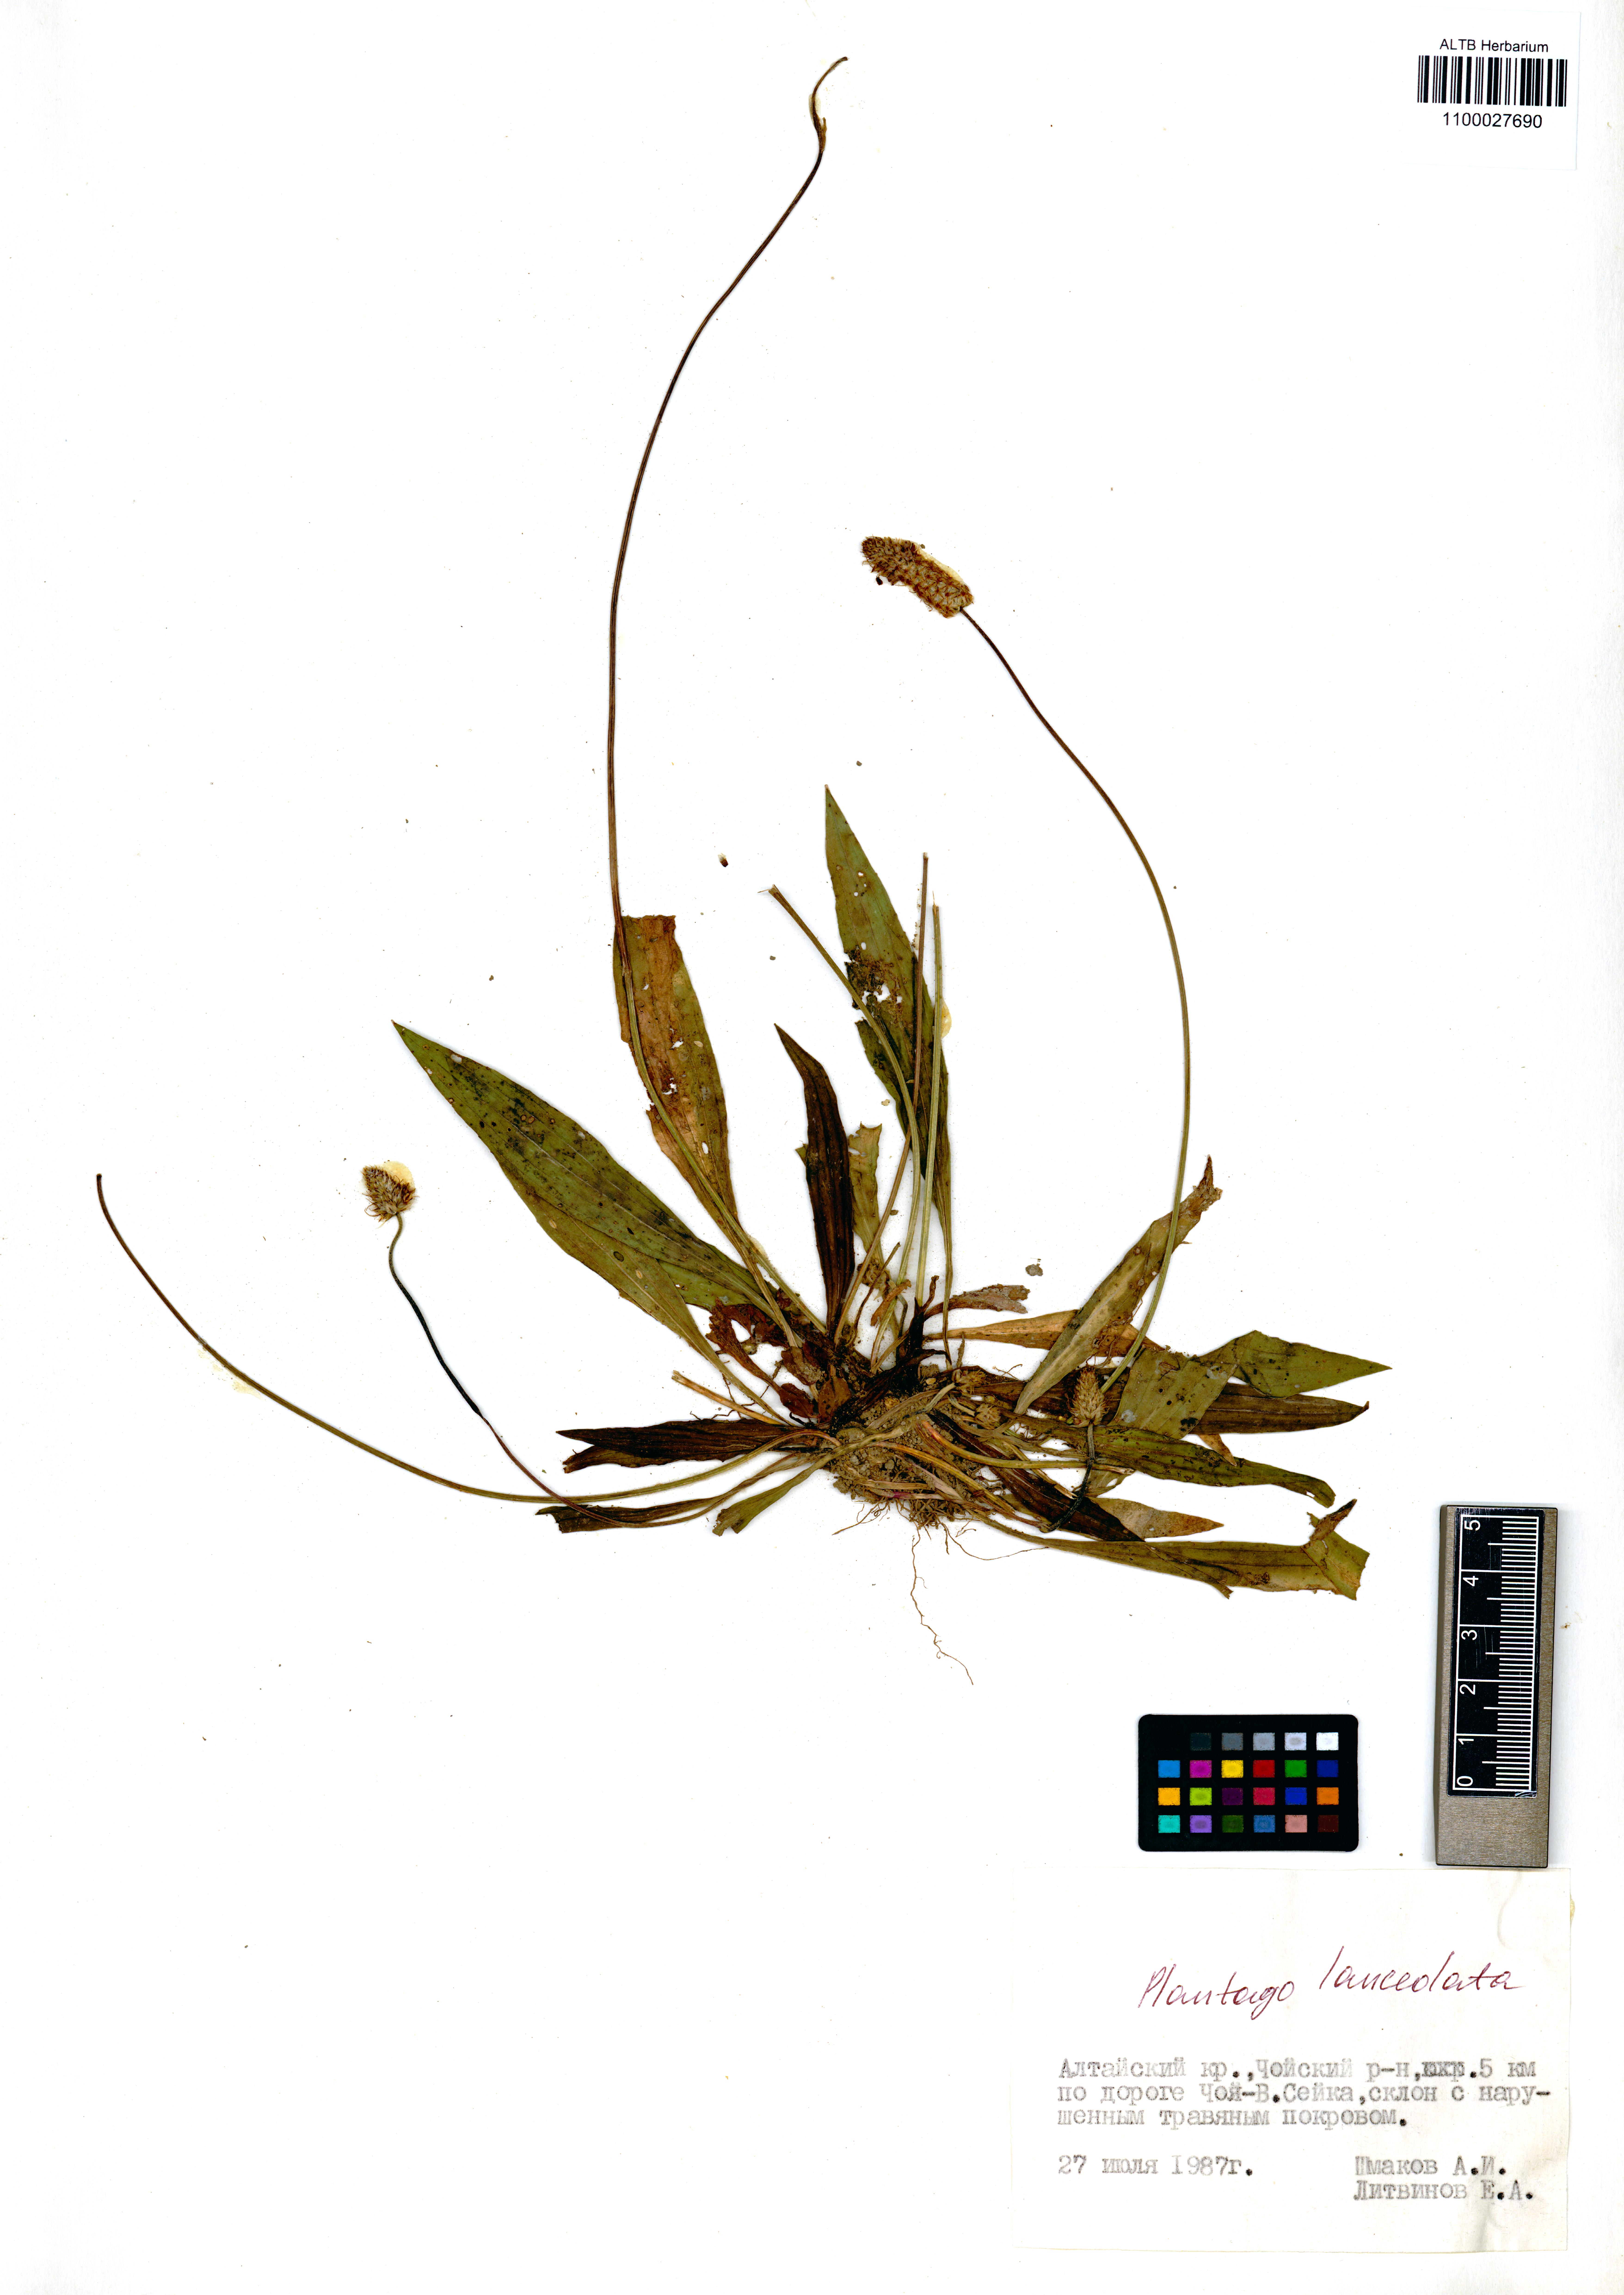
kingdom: Plantae
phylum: Tracheophyta
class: Magnoliopsida
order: Lamiales
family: Plantaginaceae
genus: Plantago
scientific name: Plantago lanceolata
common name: Ribwort plantain
